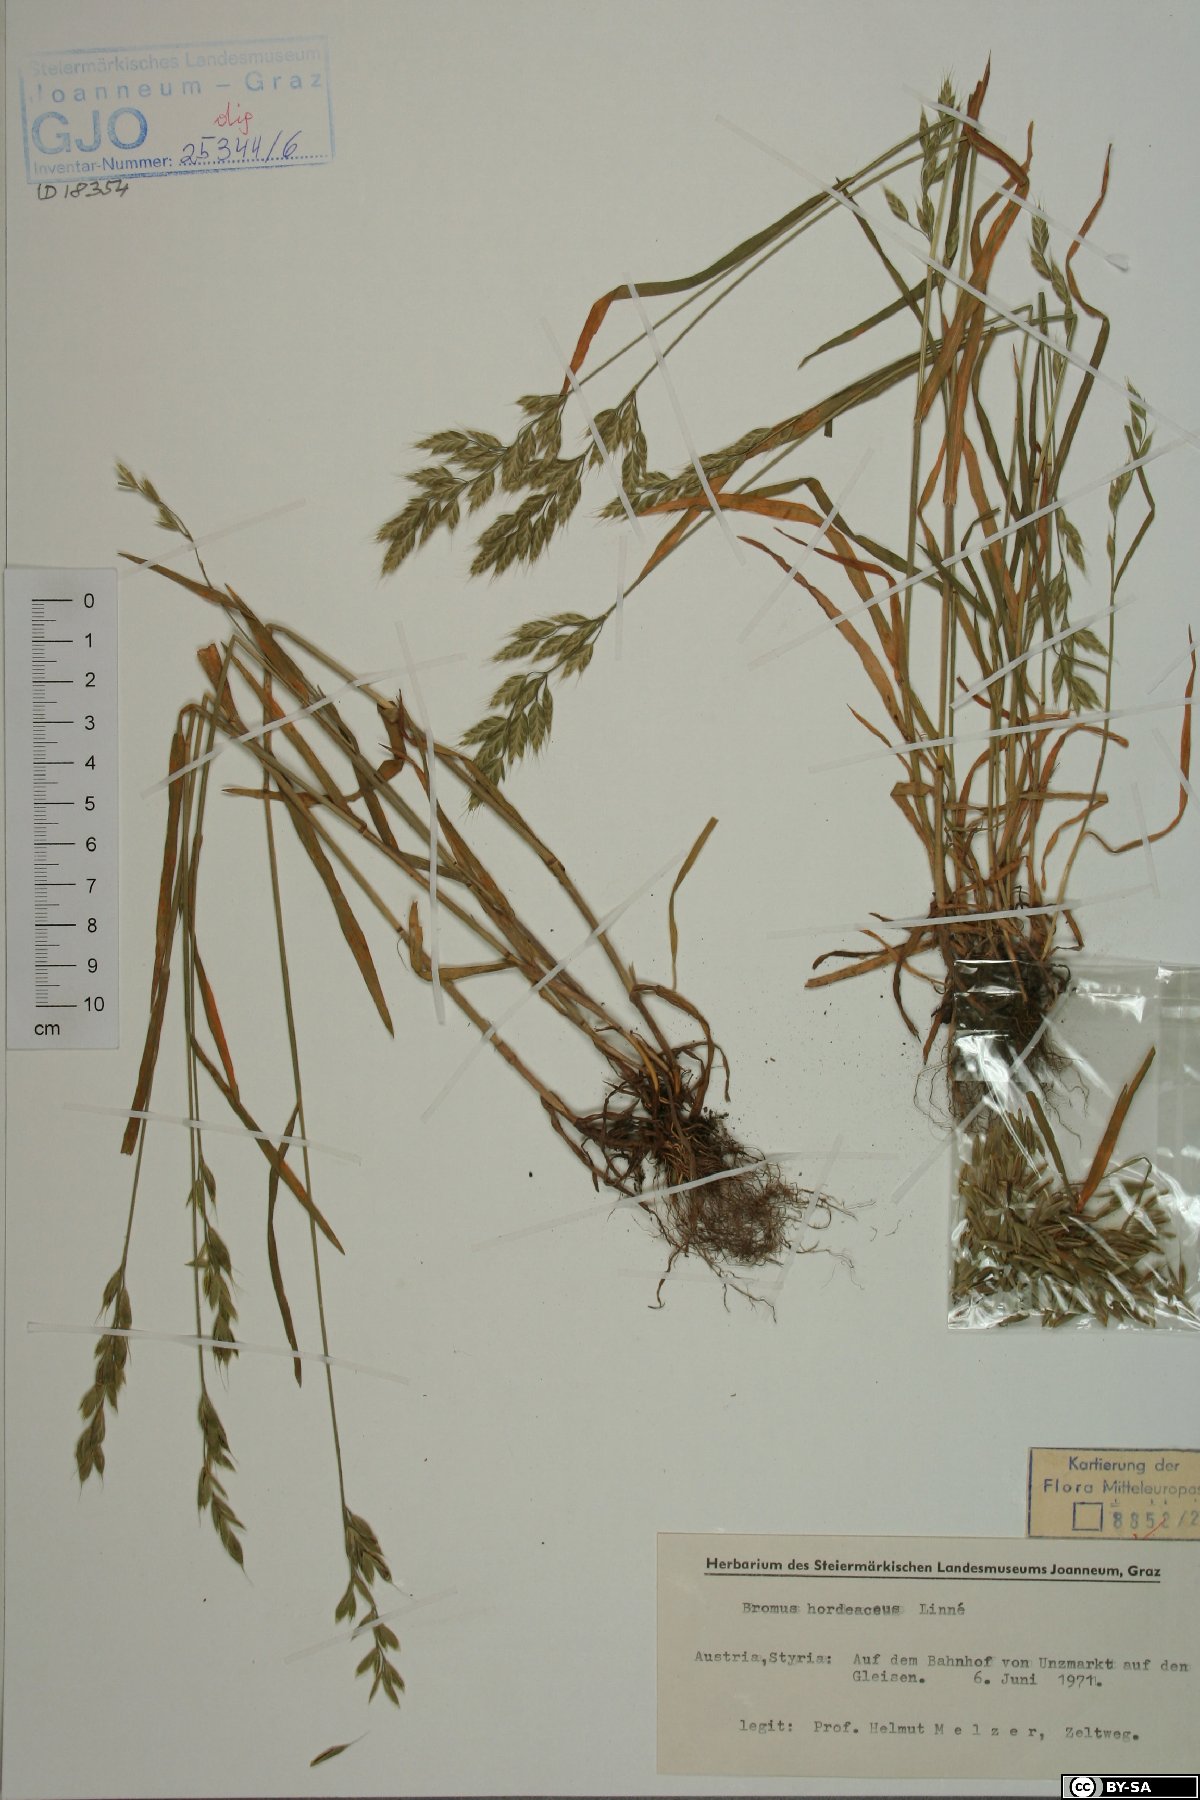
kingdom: Plantae
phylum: Tracheophyta
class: Liliopsida
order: Poales
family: Poaceae
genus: Bromus
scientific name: Bromus hordeaceus
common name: Soft brome
